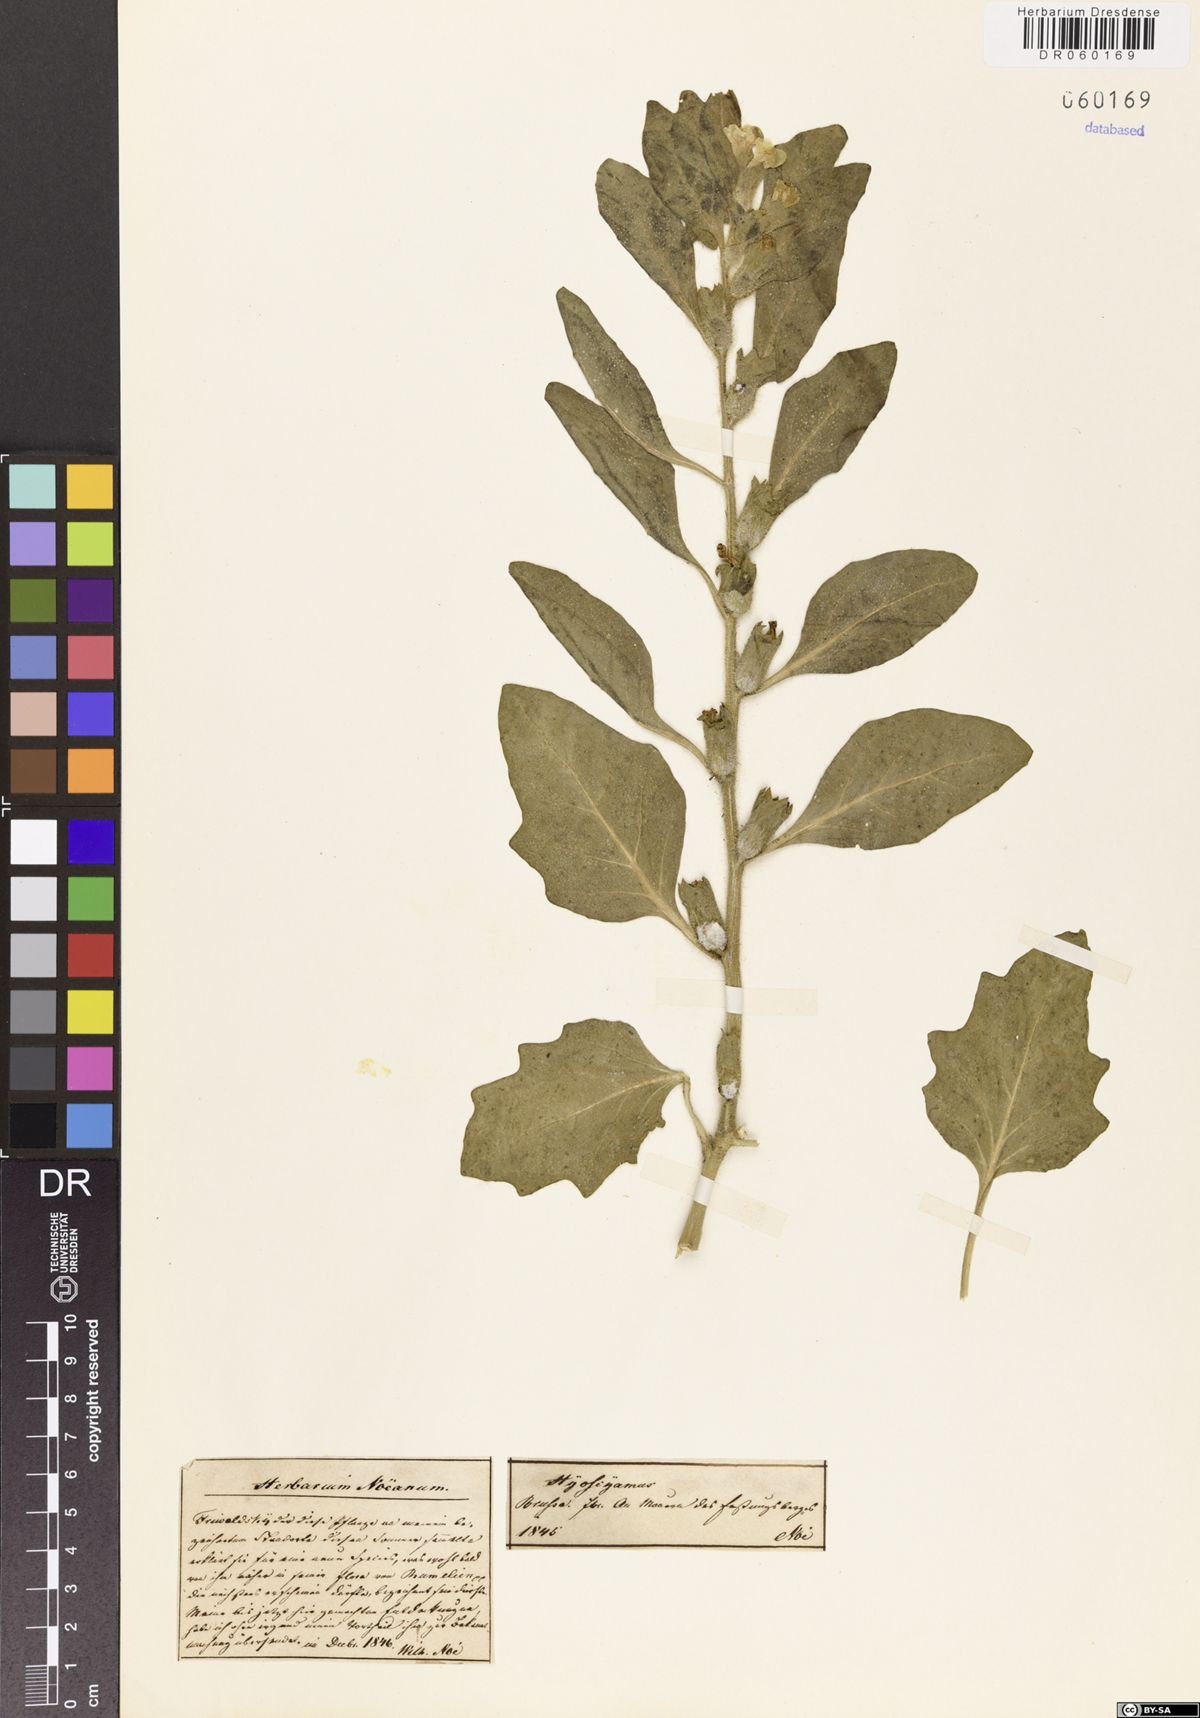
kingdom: Plantae
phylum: Tracheophyta
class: Magnoliopsida
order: Solanales
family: Solanaceae
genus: Hyoscyamus
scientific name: Hyoscyamus
